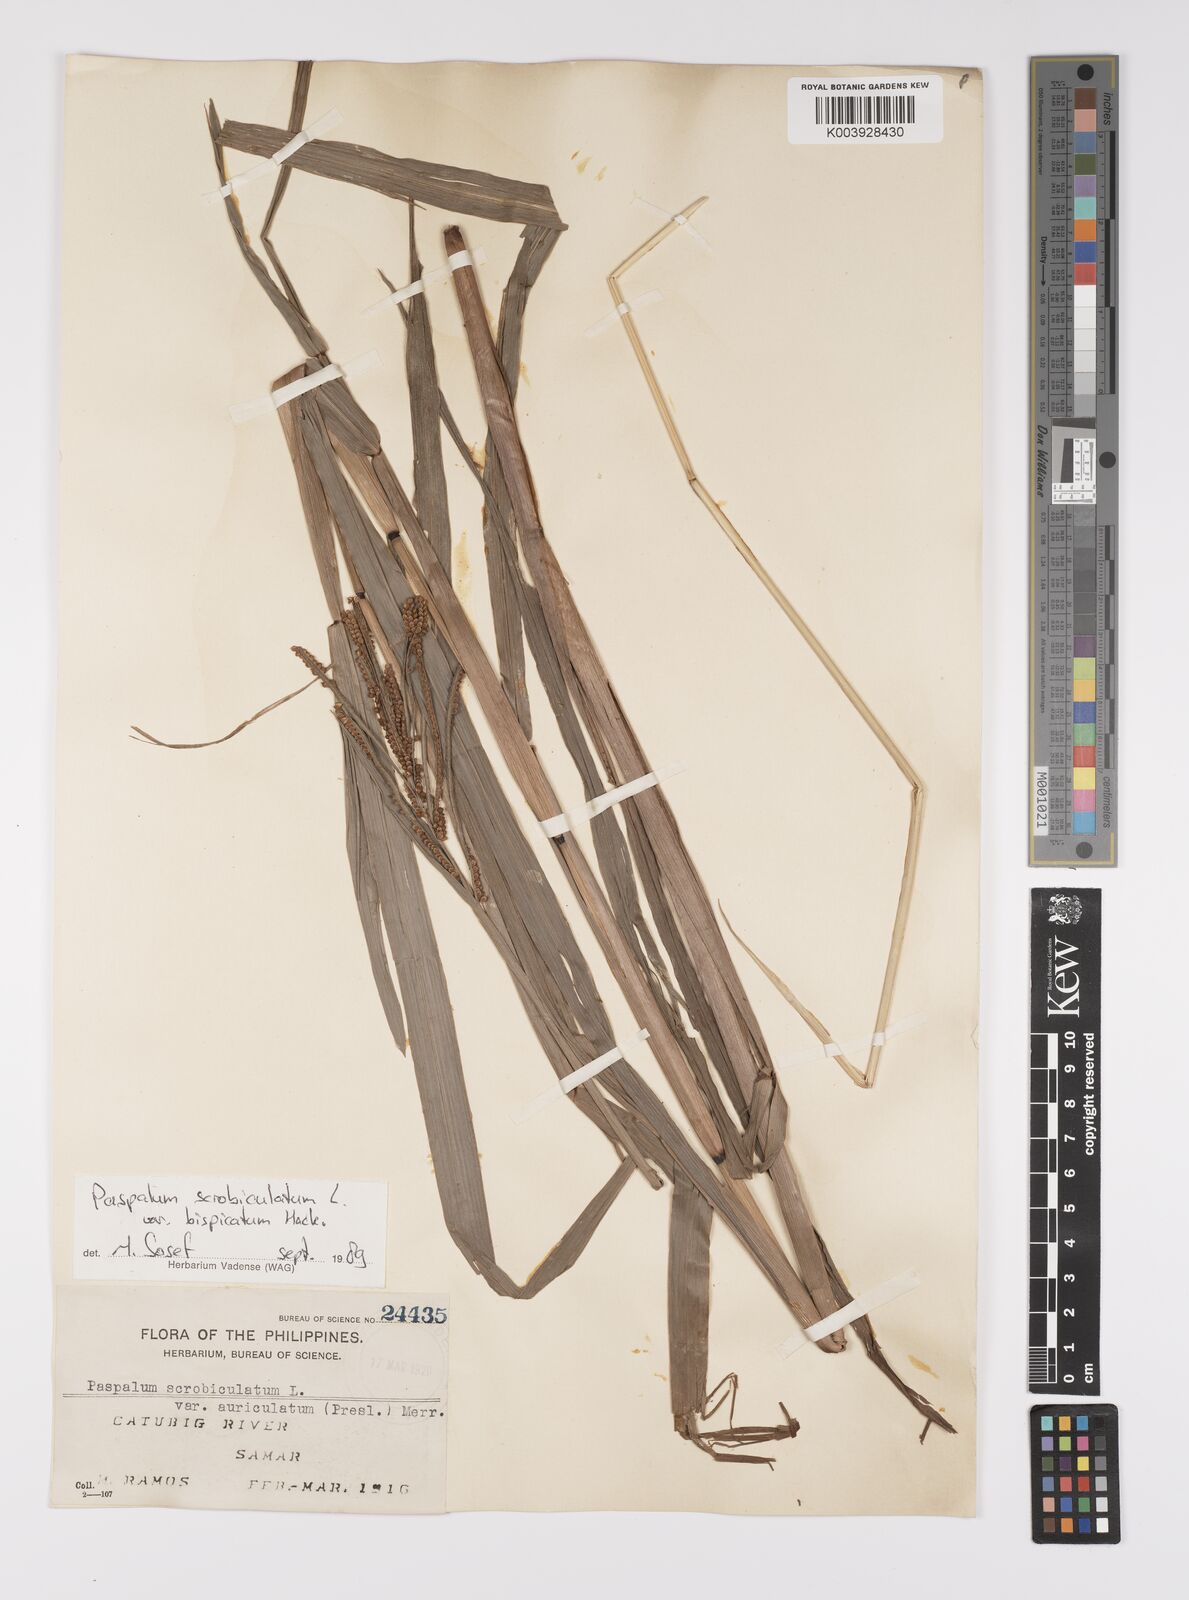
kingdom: Plantae
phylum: Tracheophyta
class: Liliopsida
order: Poales
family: Poaceae
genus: Paspalum
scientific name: Paspalum scrobiculatum
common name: Kodo millet
